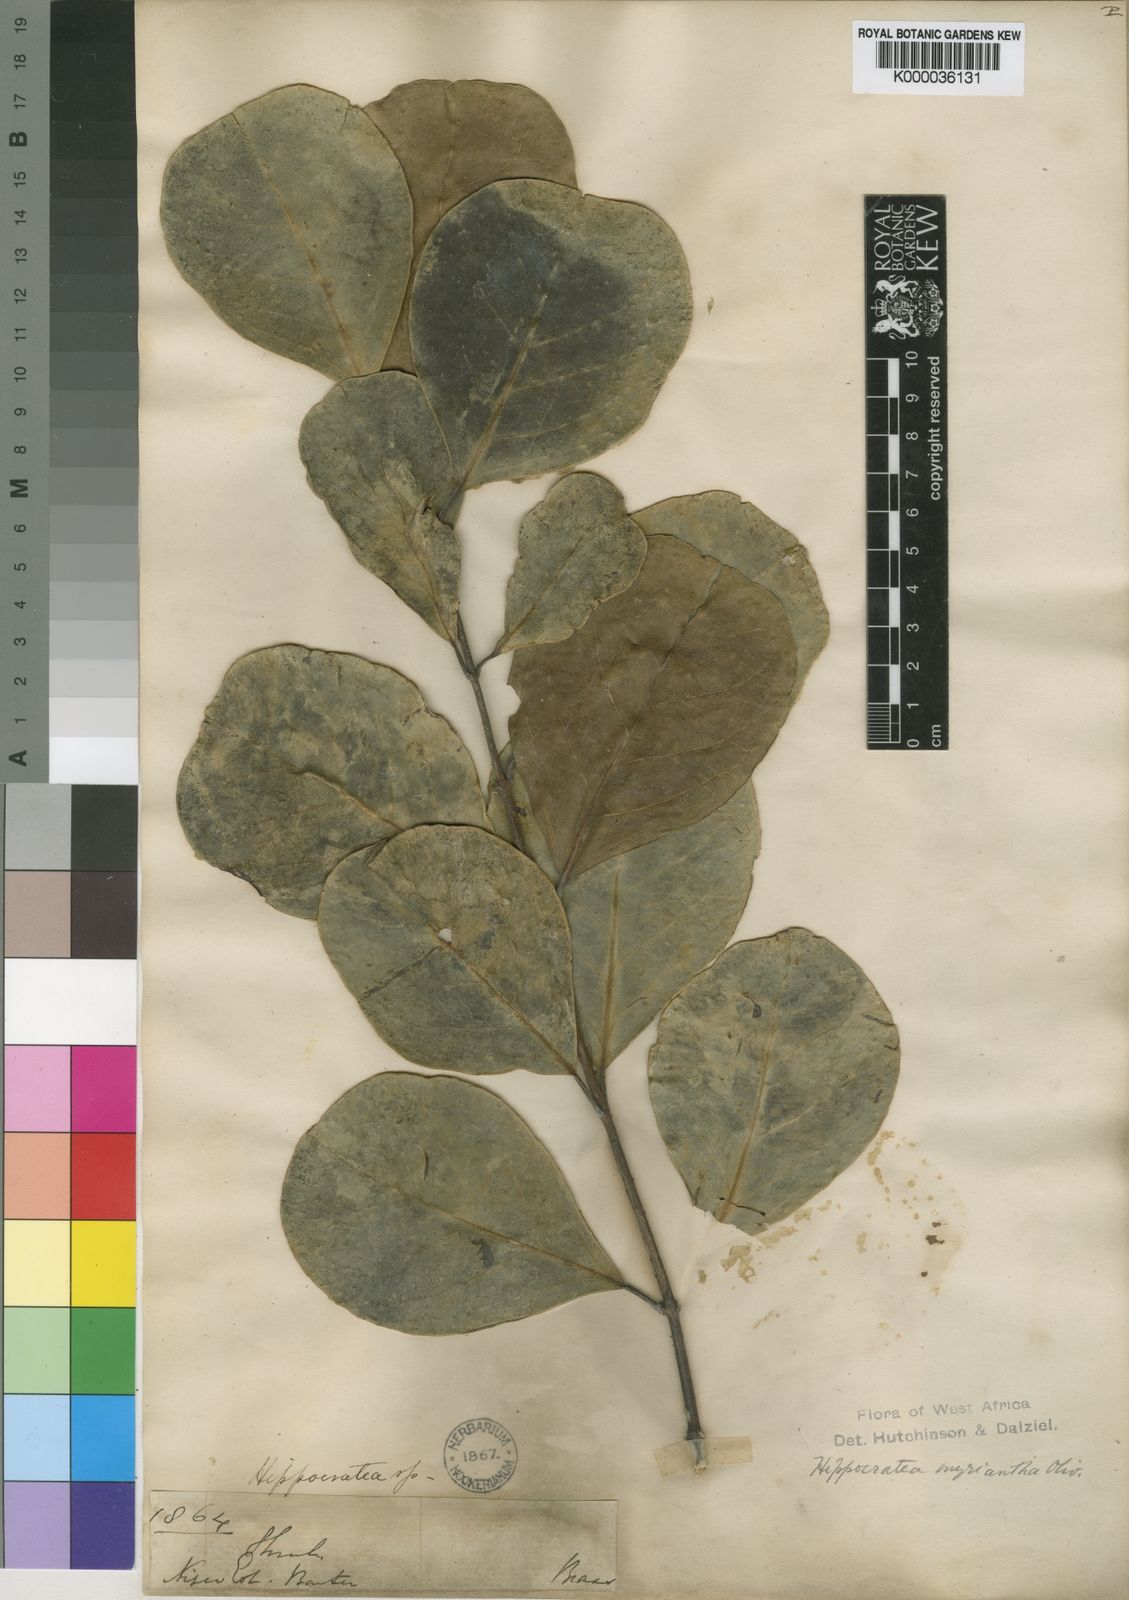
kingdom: Plantae
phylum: Tracheophyta
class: Magnoliopsida
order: Celastrales
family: Celastraceae
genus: Hippocratea
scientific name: Hippocratea myriantha
